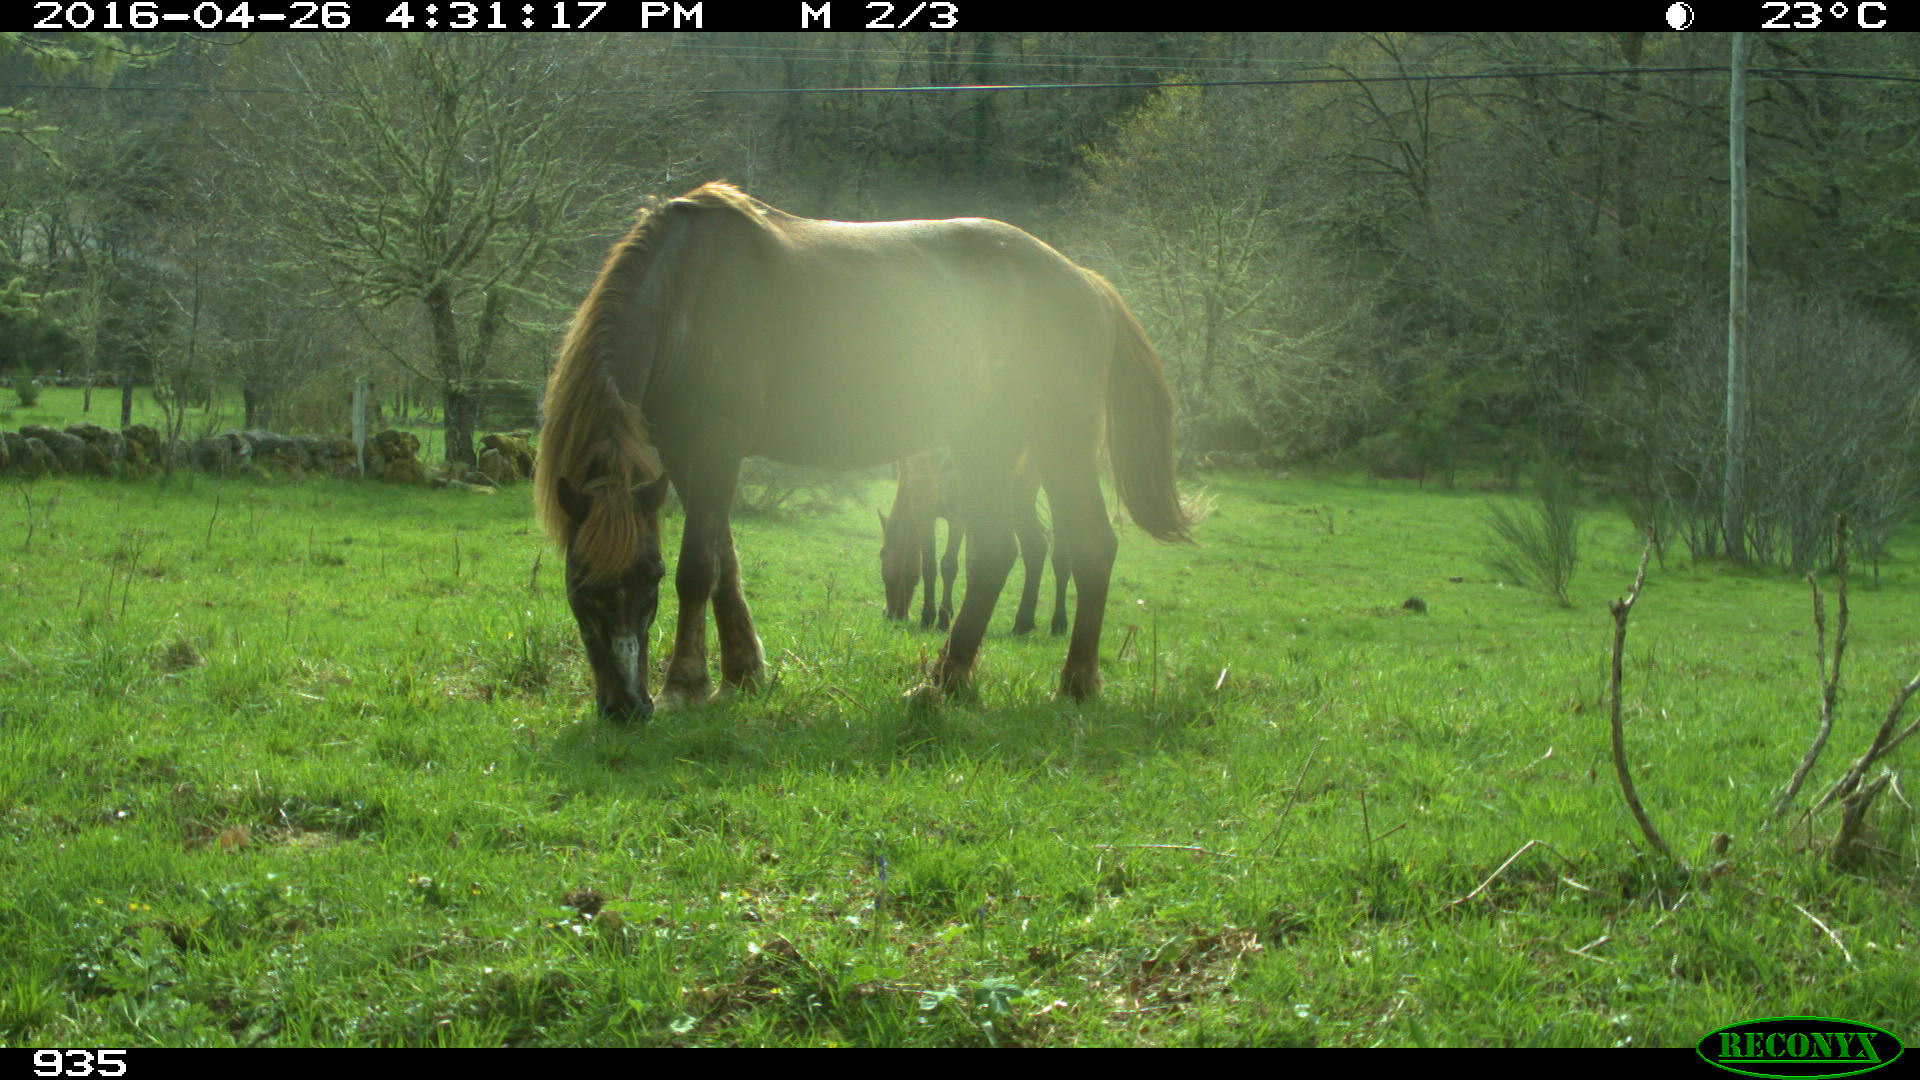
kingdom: Animalia
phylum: Chordata
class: Mammalia
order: Perissodactyla
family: Equidae
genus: Equus
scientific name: Equus caballus
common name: Horse
